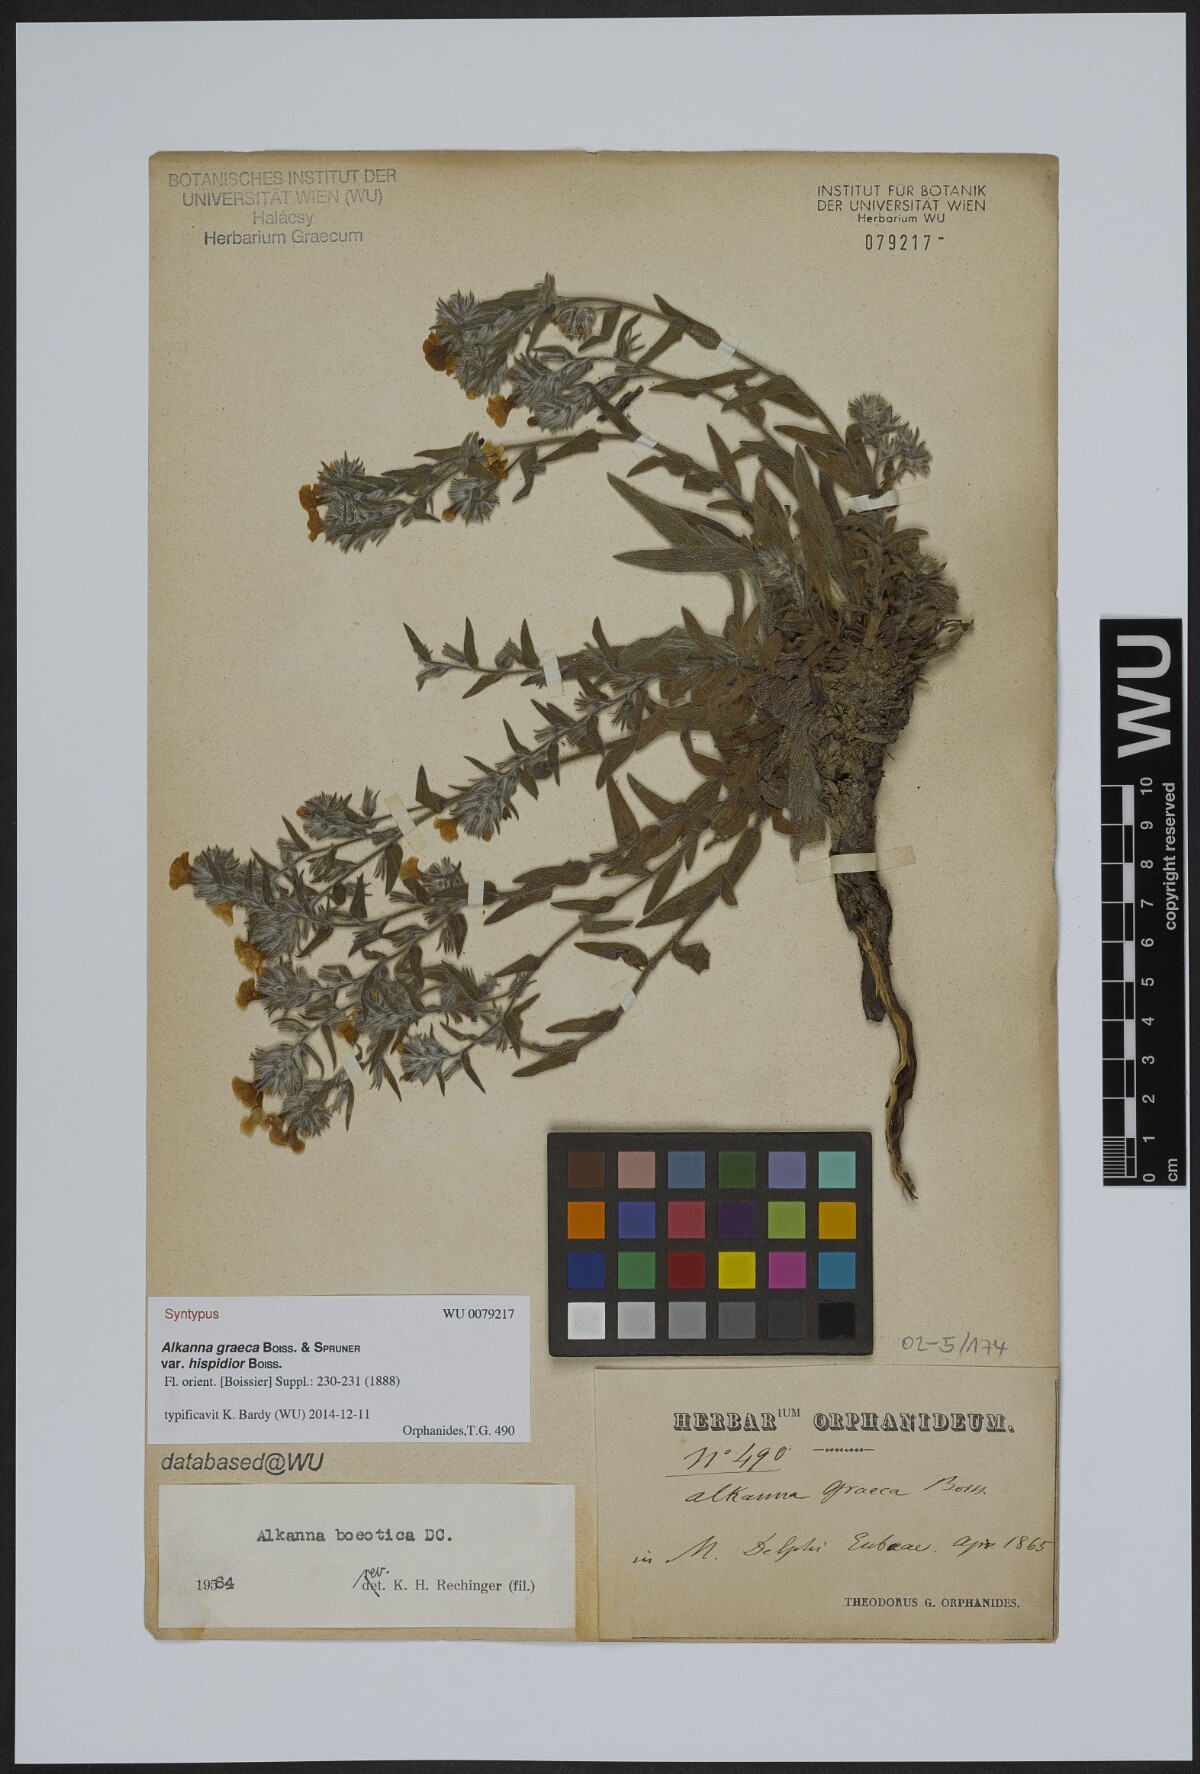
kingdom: Plantae
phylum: Tracheophyta
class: Magnoliopsida
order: Boraginales
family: Boraginaceae
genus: Alkanna
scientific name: Alkanna graeca
